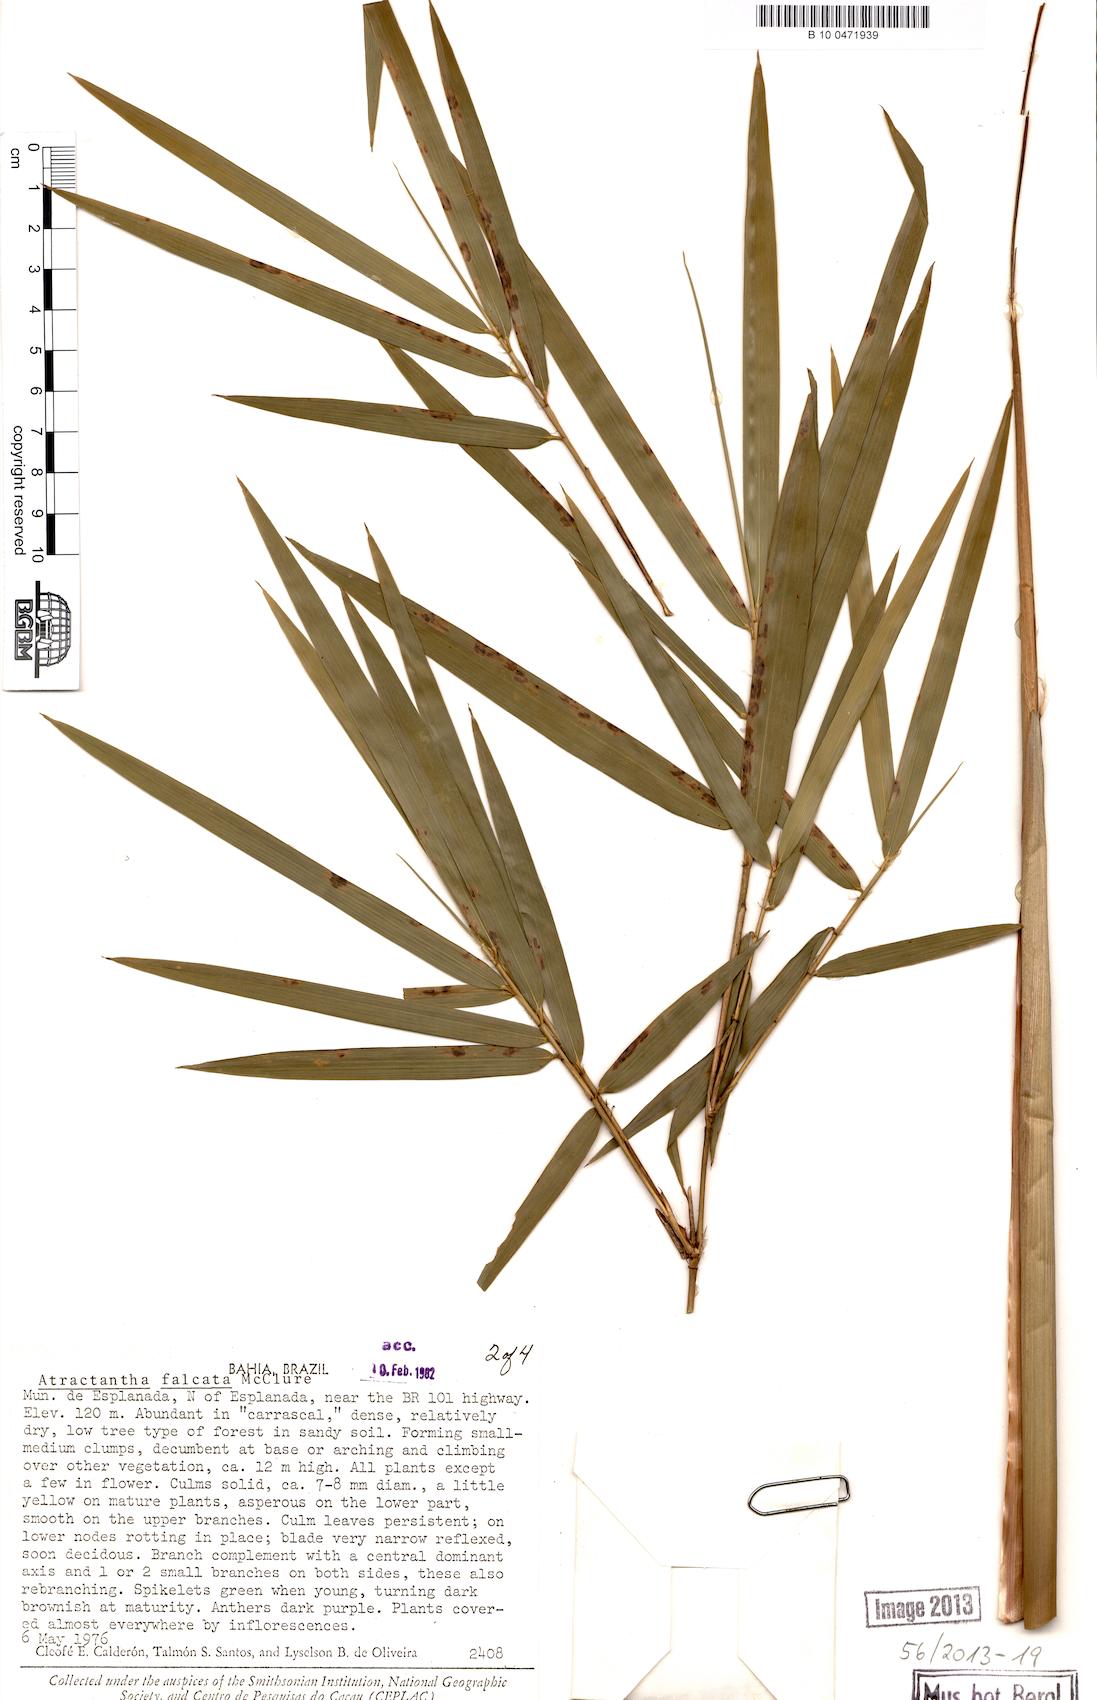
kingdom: Plantae
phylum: Tracheophyta
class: Liliopsida
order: Poales
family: Poaceae
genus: Atractantha
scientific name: Atractantha falcata
